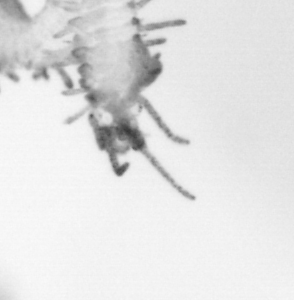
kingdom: Animalia
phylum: Annelida
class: Polychaeta
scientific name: Polychaeta
